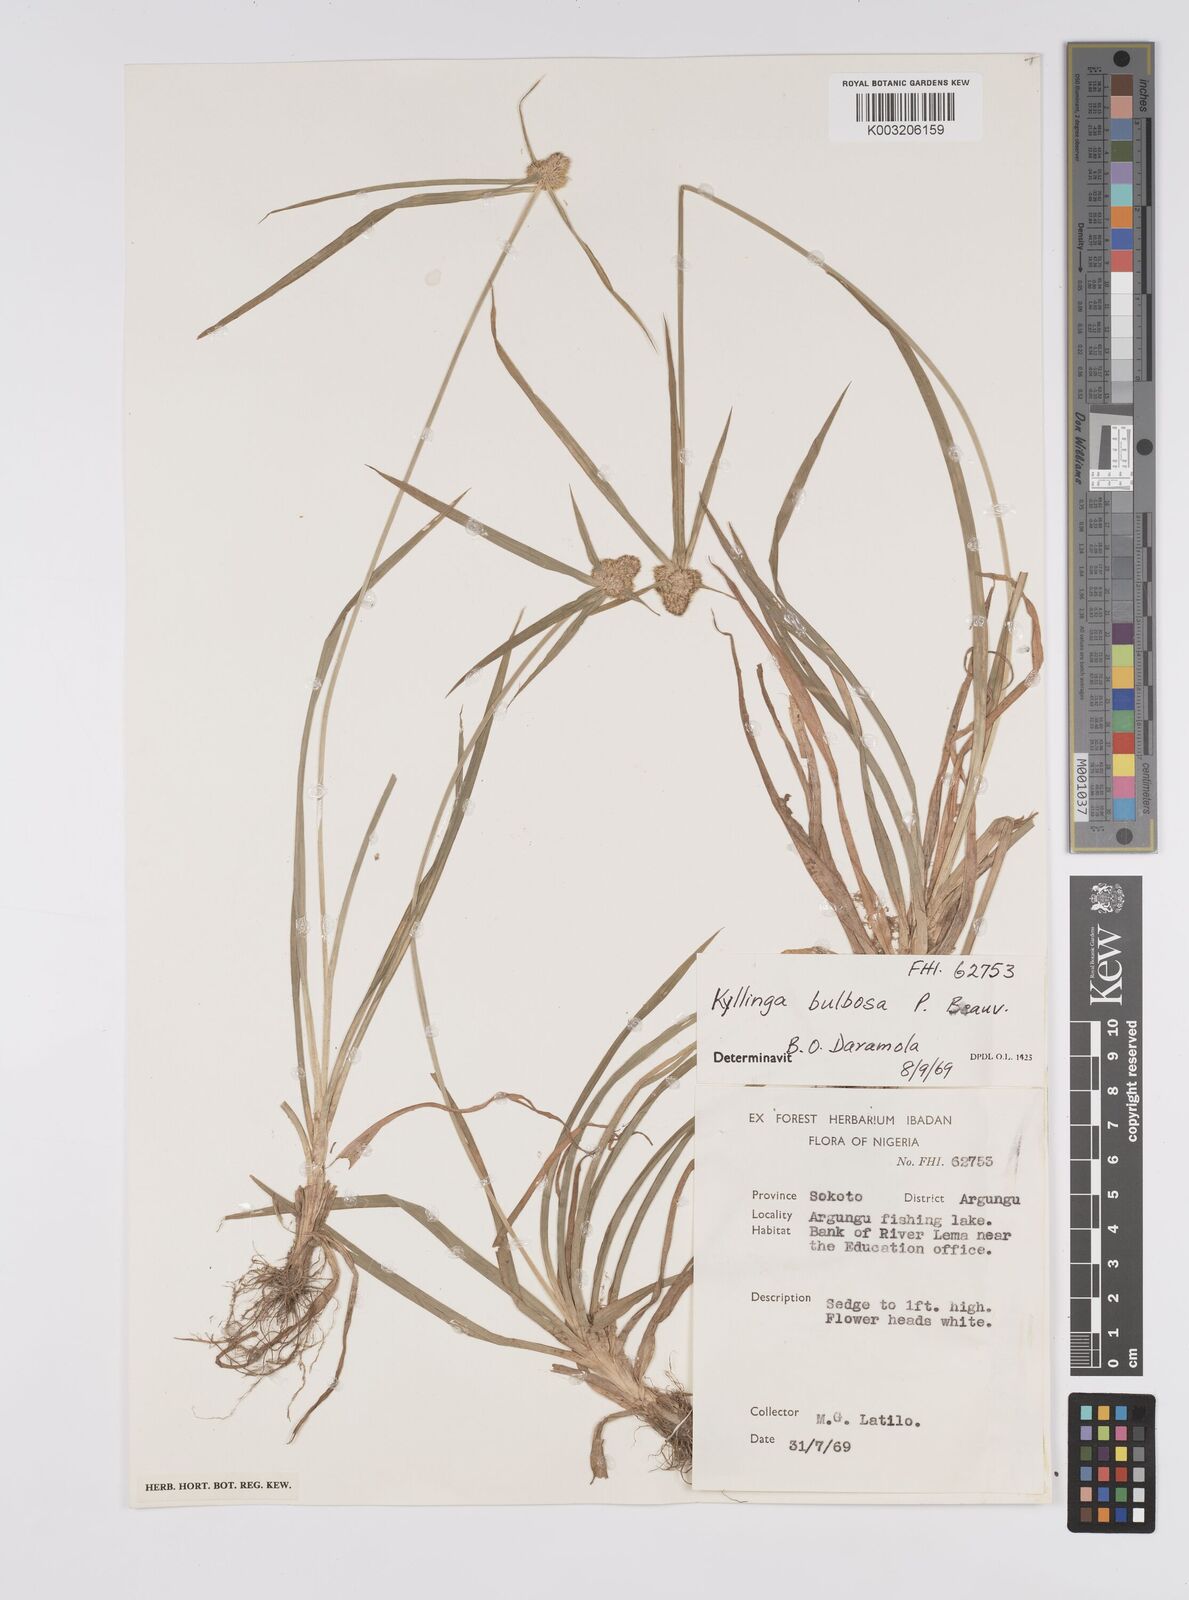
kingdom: Plantae
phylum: Tracheophyta
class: Liliopsida
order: Poales
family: Cyperaceae
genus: Cyperus
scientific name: Cyperus
